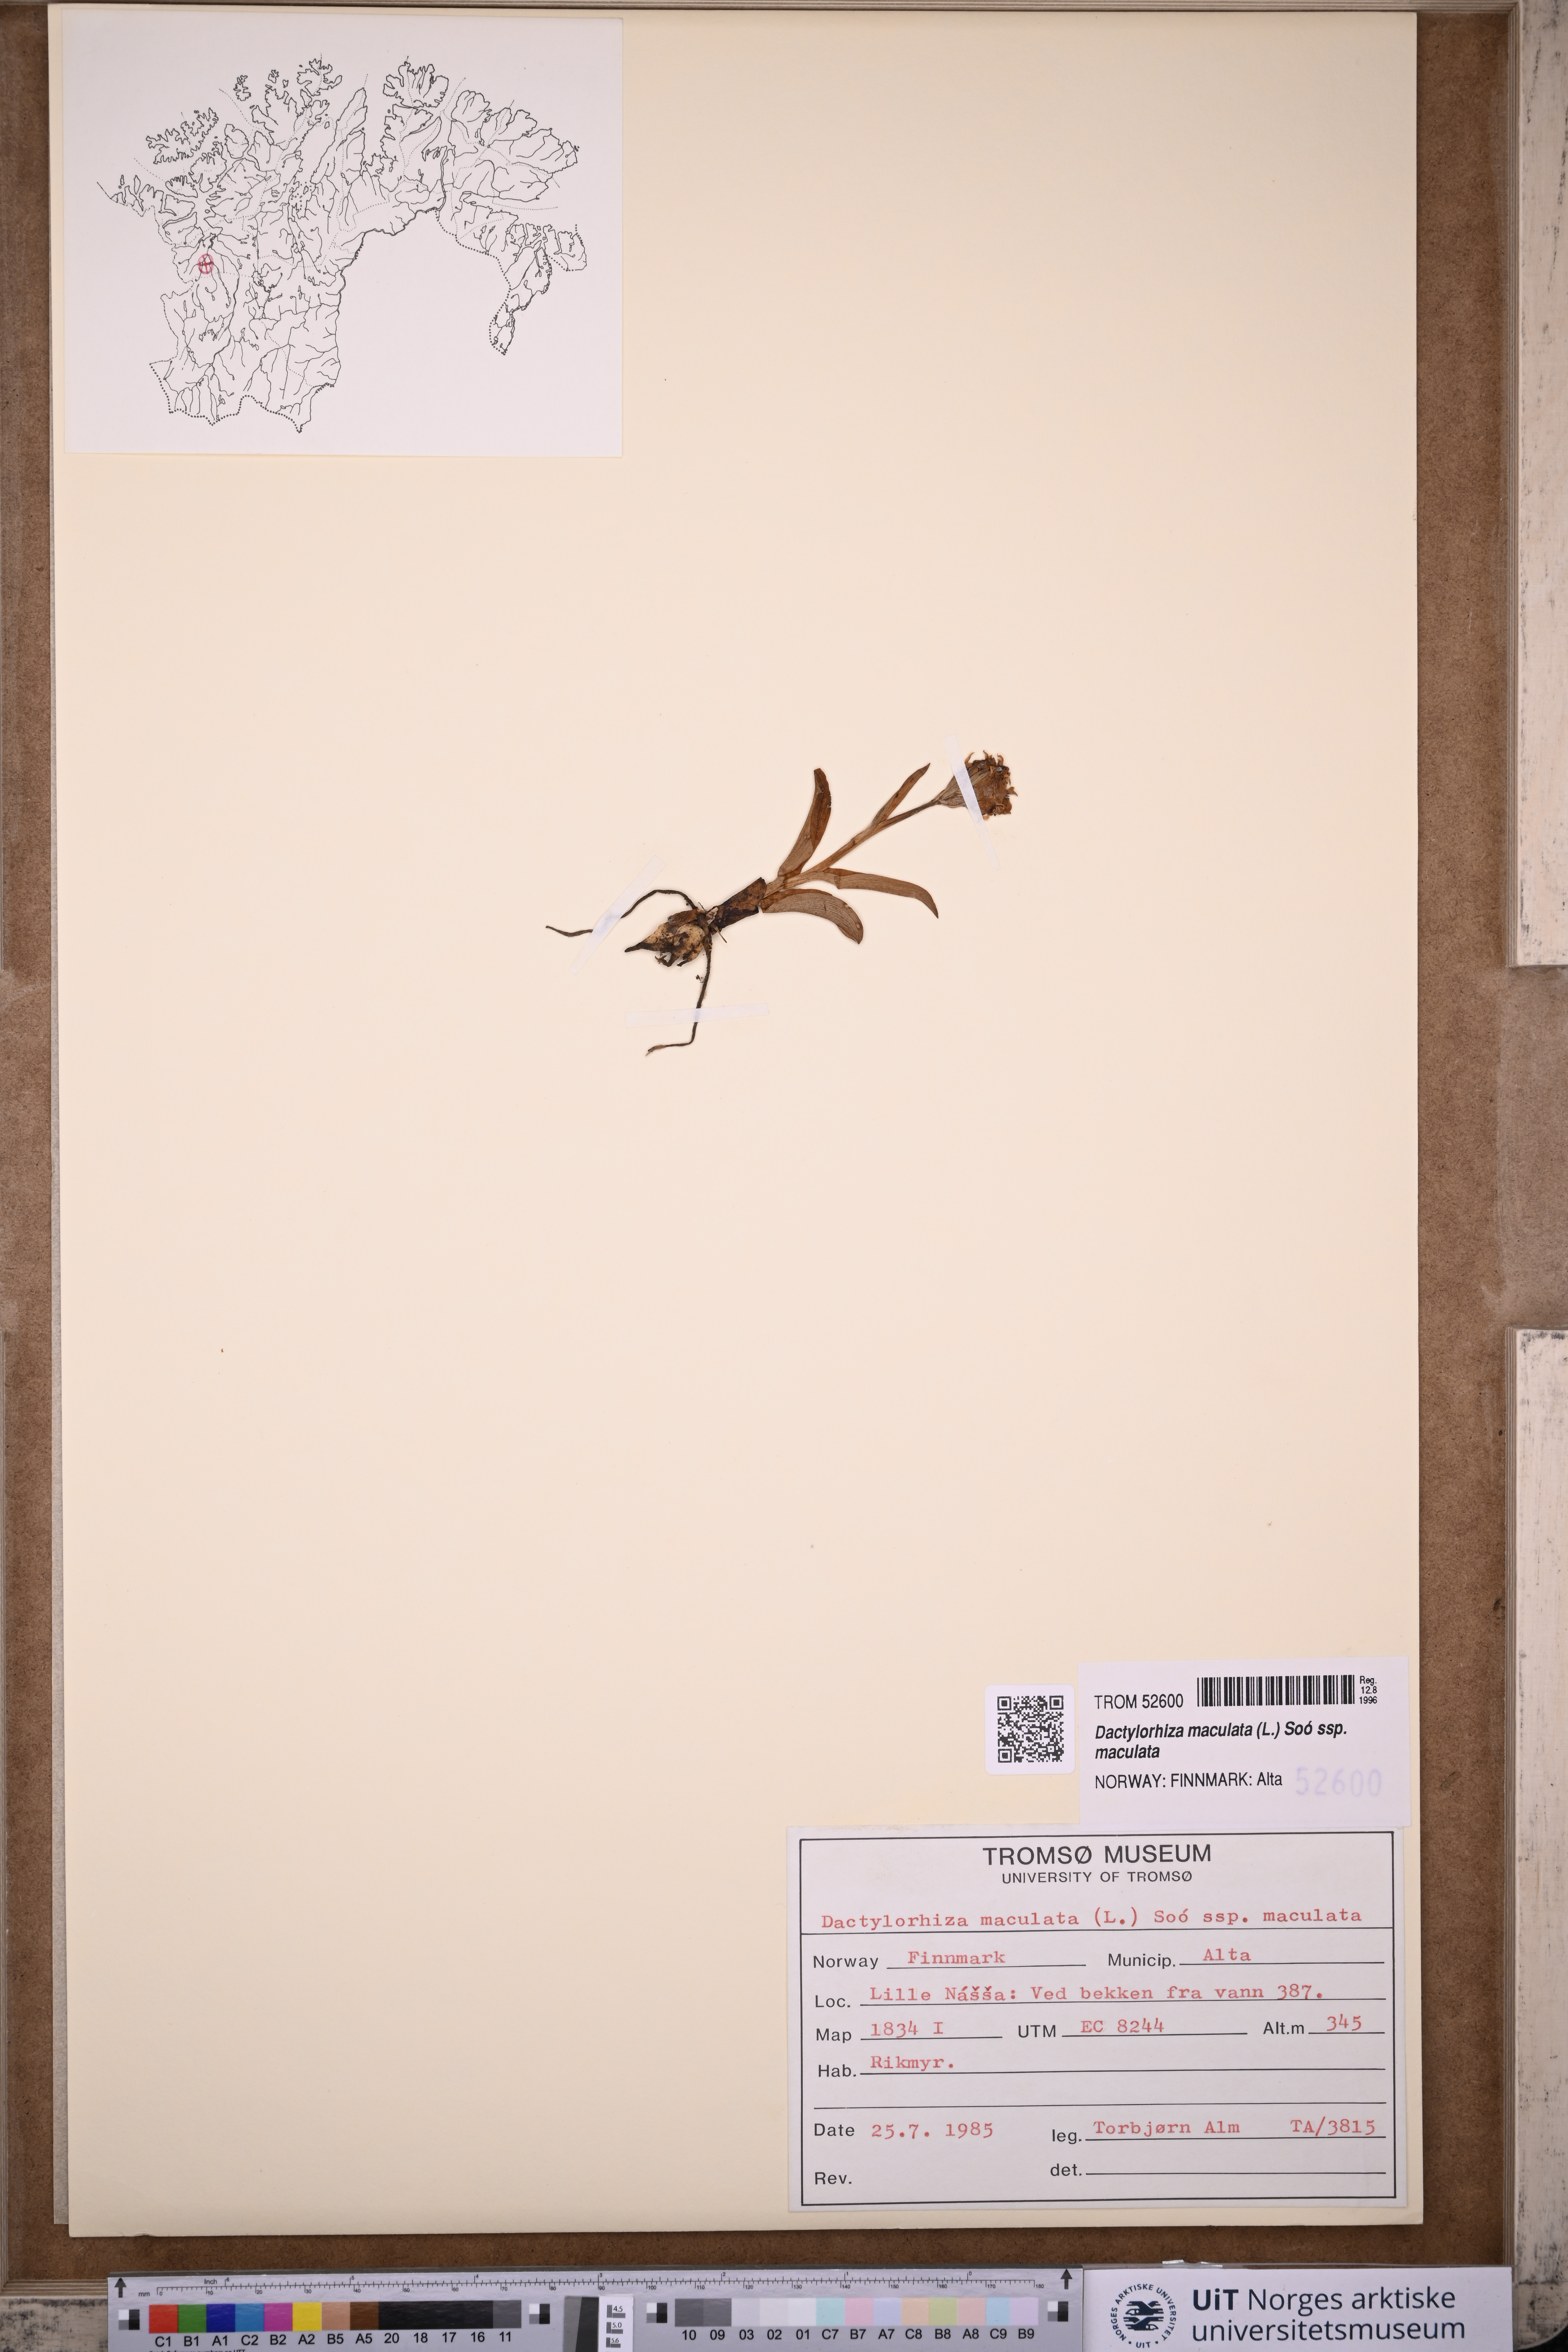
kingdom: Plantae
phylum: Tracheophyta
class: Liliopsida
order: Asparagales
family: Orchidaceae
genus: Dactylorhiza
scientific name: Dactylorhiza maculata
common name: Heath spotted-orchid
